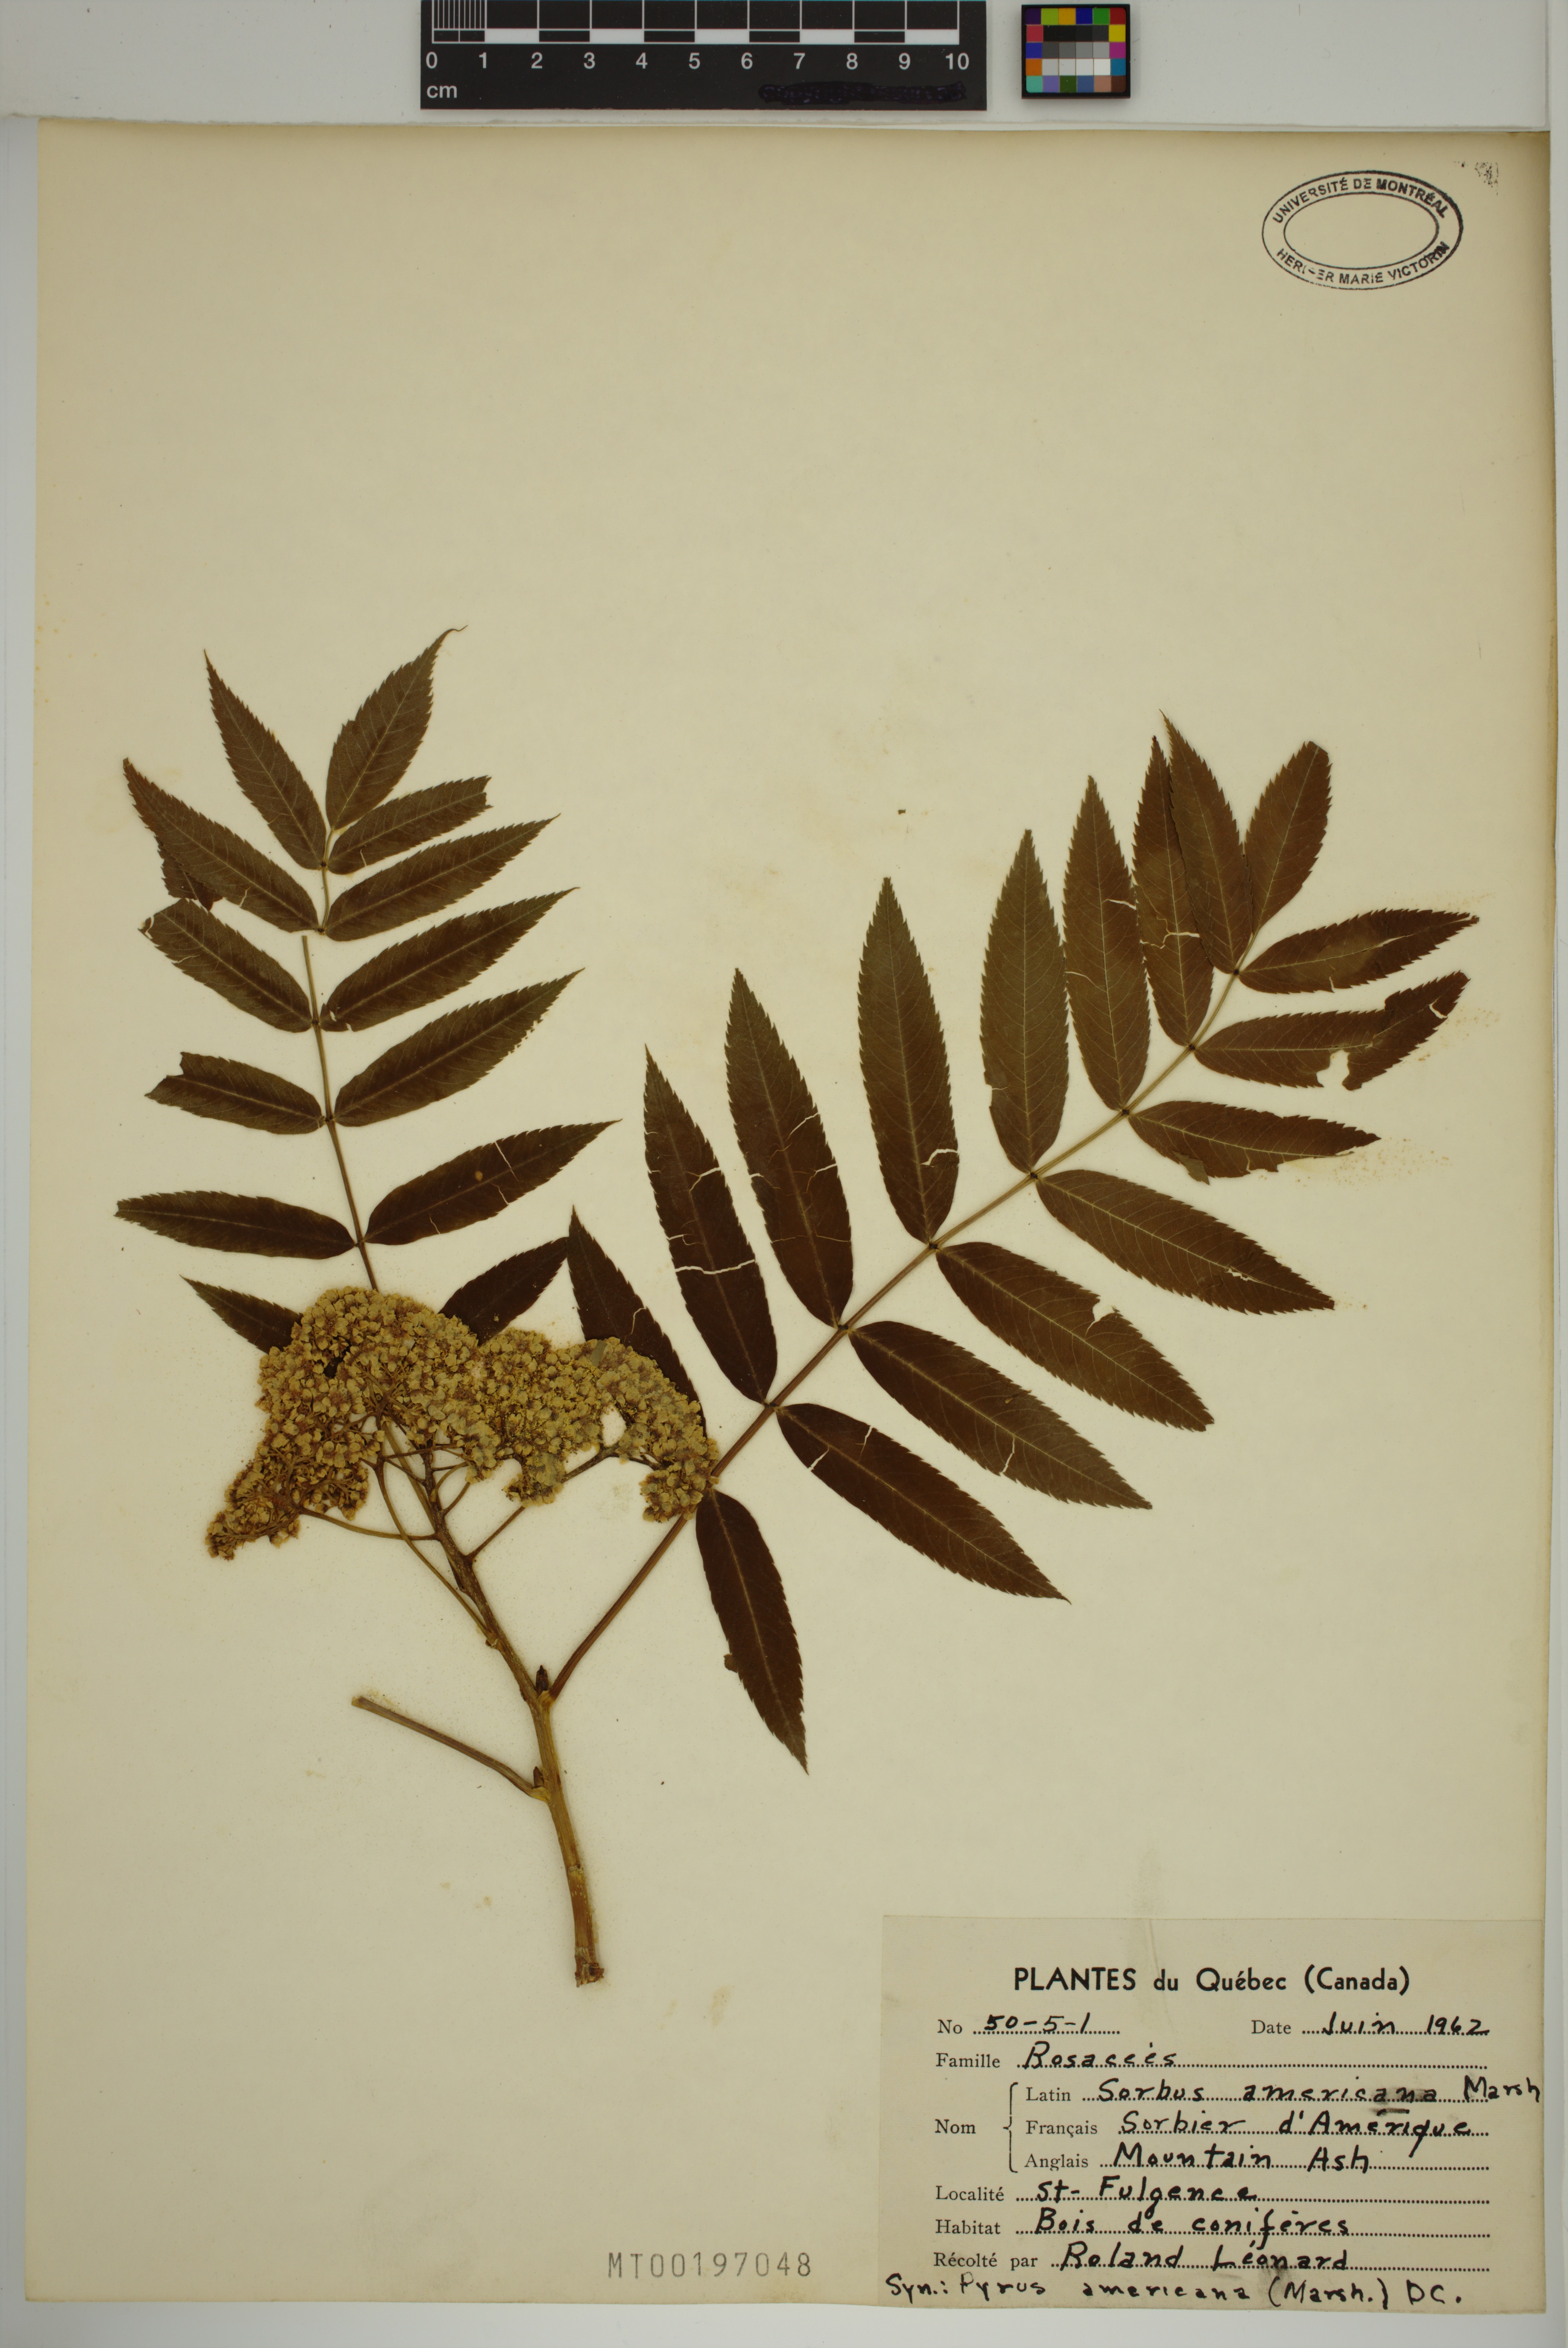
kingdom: Plantae
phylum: Tracheophyta
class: Magnoliopsida
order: Rosales
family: Rosaceae
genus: Sorbus
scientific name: Sorbus americana
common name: American mountain-ash
